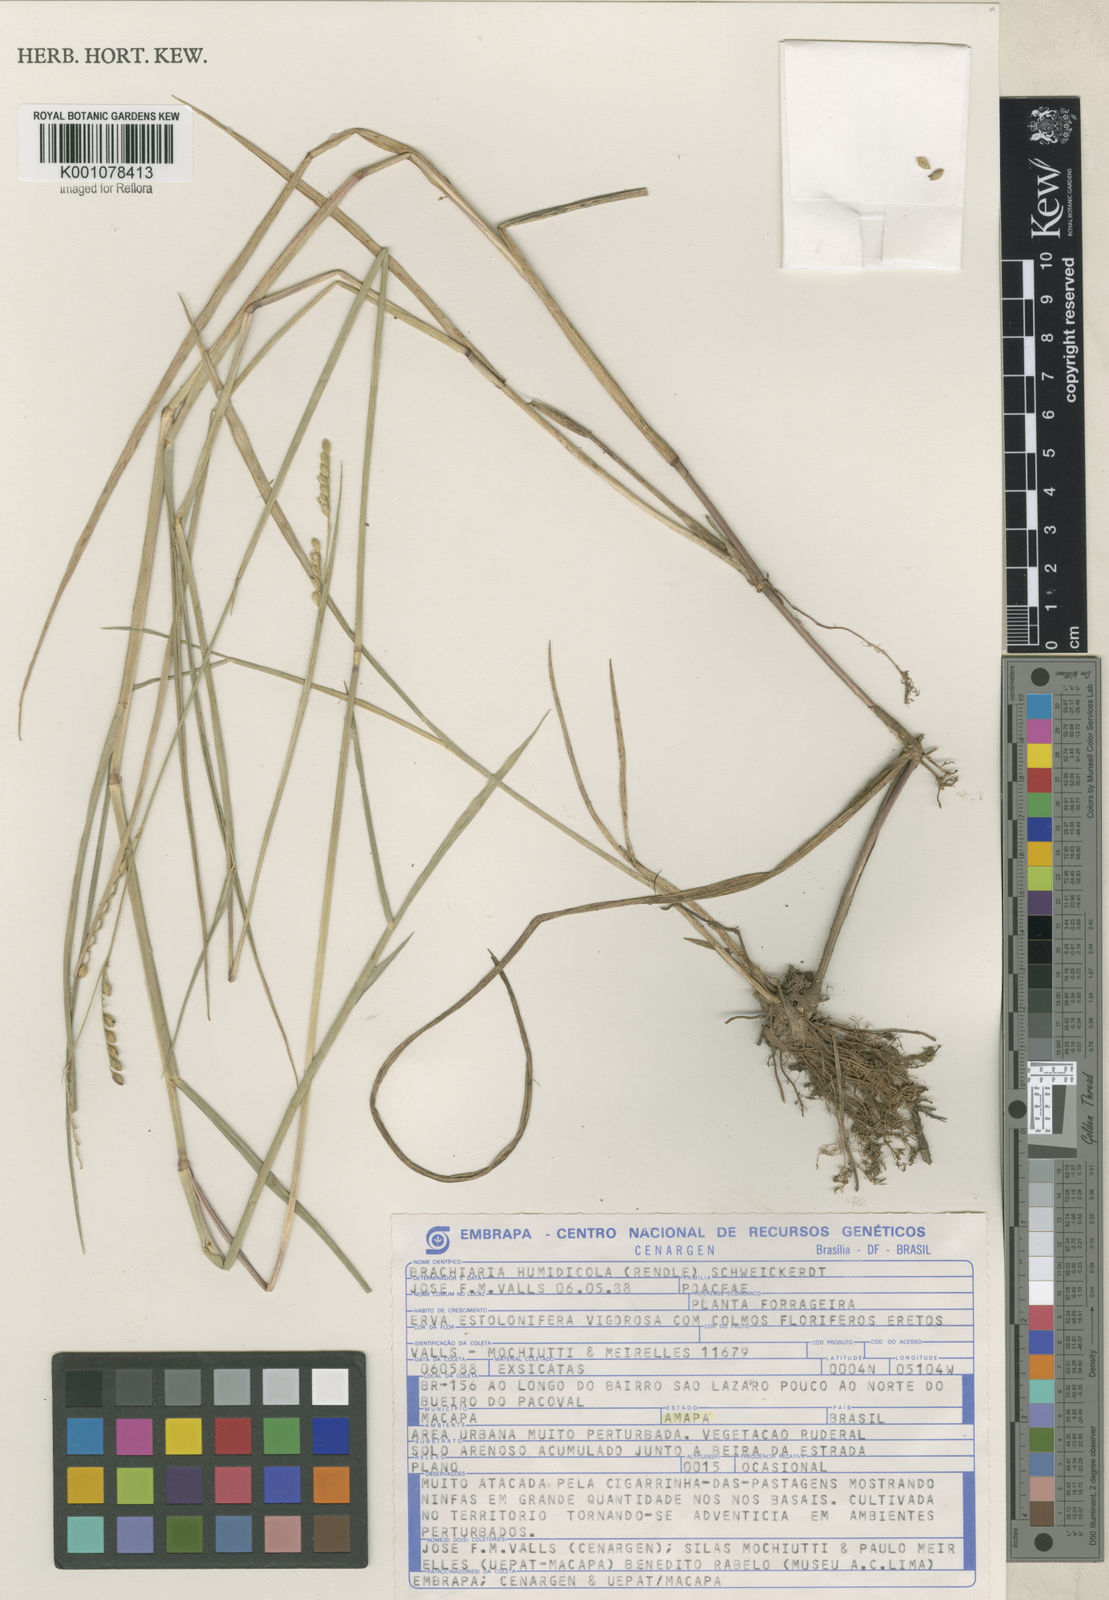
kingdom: Plantae
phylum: Tracheophyta
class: Liliopsida
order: Poales
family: Poaceae
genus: Urochloa
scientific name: Urochloa dictyoneura
